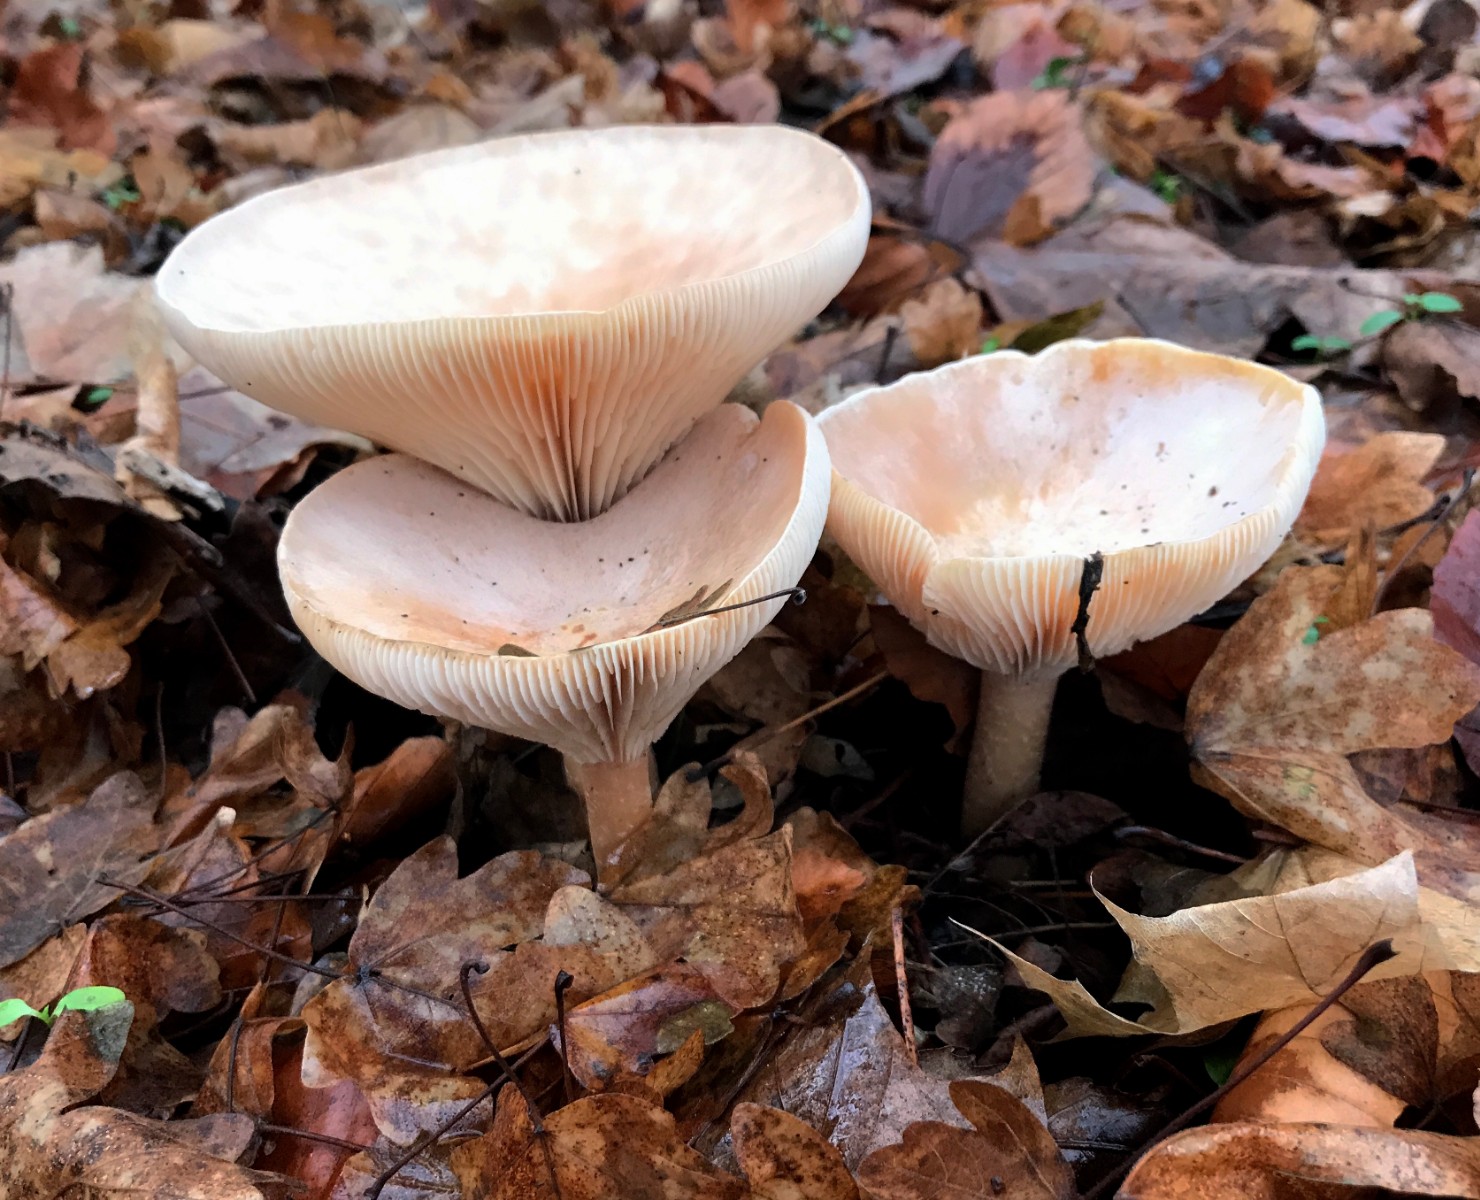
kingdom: Fungi
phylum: Basidiomycota
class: Agaricomycetes
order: Agaricales
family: Tricholomataceae
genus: Infundibulicybe
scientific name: Infundibulicybe geotropa
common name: stor tragthat
